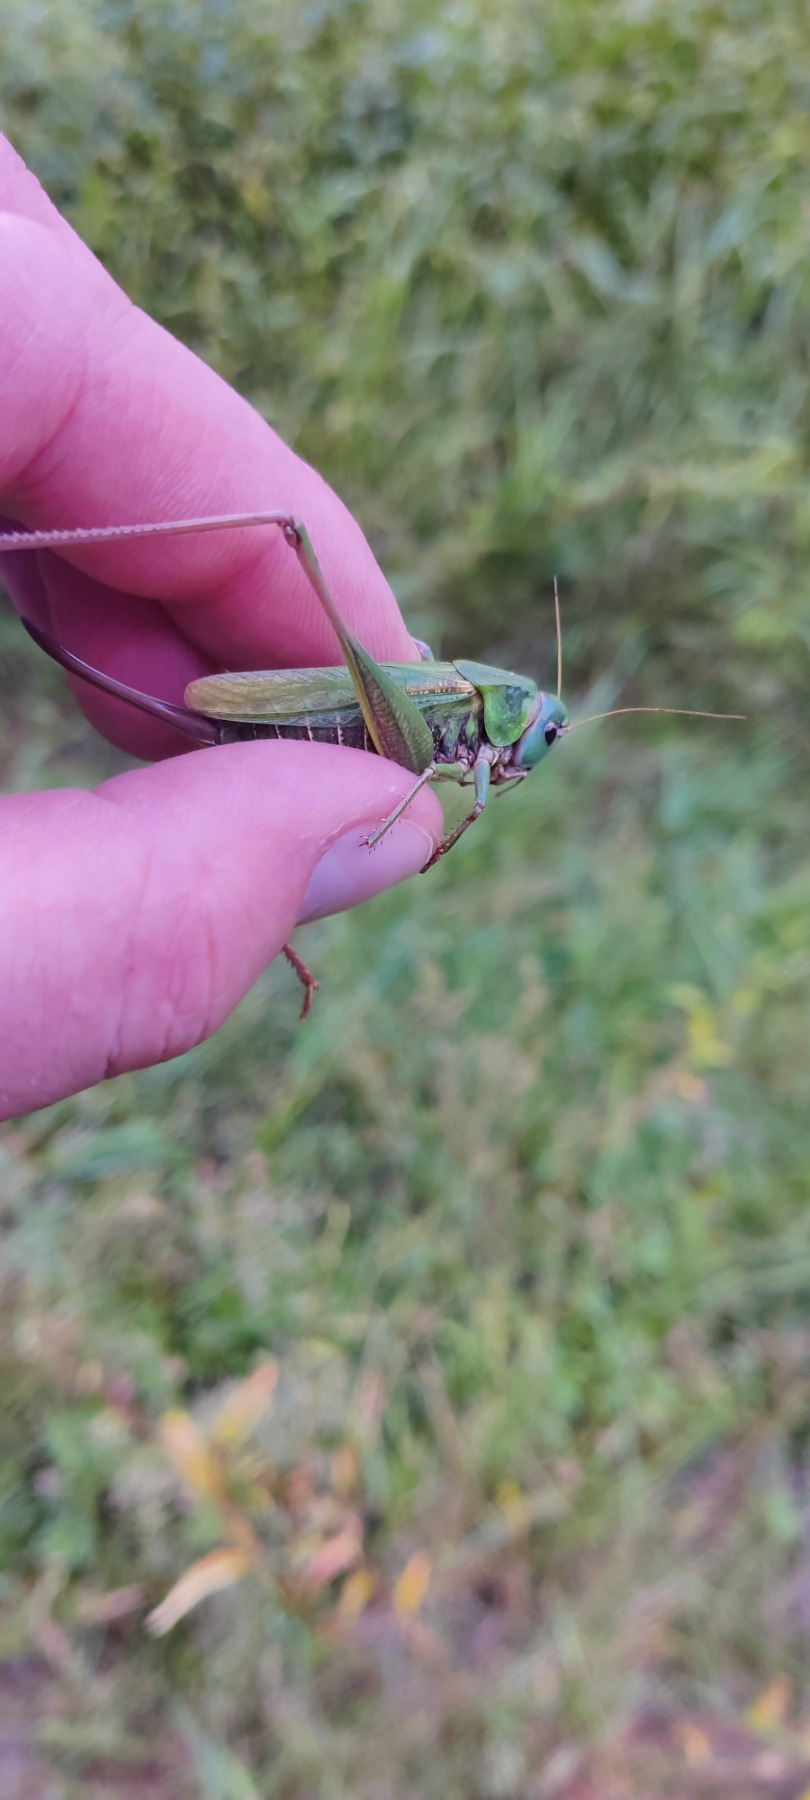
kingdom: Animalia
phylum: Arthropoda
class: Insecta
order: Orthoptera
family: Tettigoniidae
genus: Decticus
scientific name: Decticus verrucivorus
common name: Vortebider
